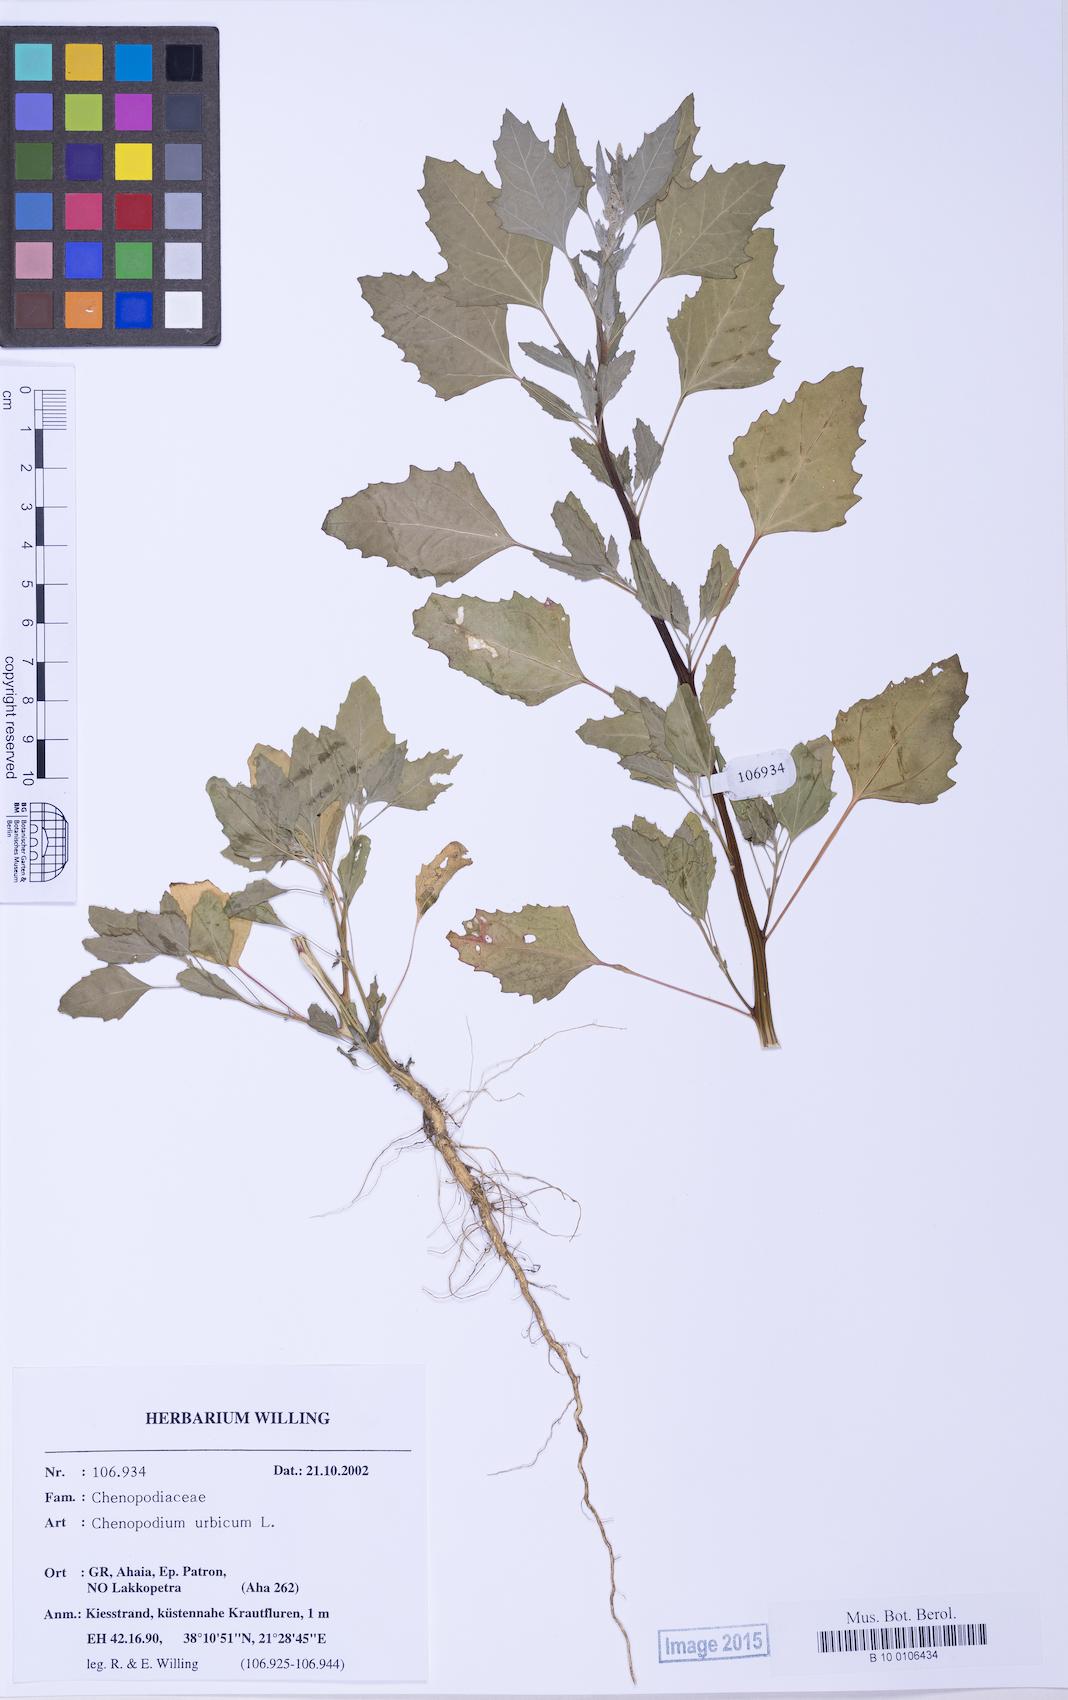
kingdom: Plantae
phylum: Tracheophyta
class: Magnoliopsida
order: Caryophyllales
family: Amaranthaceae
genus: Chenopodium
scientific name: Chenopodium album
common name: Fat-hen
